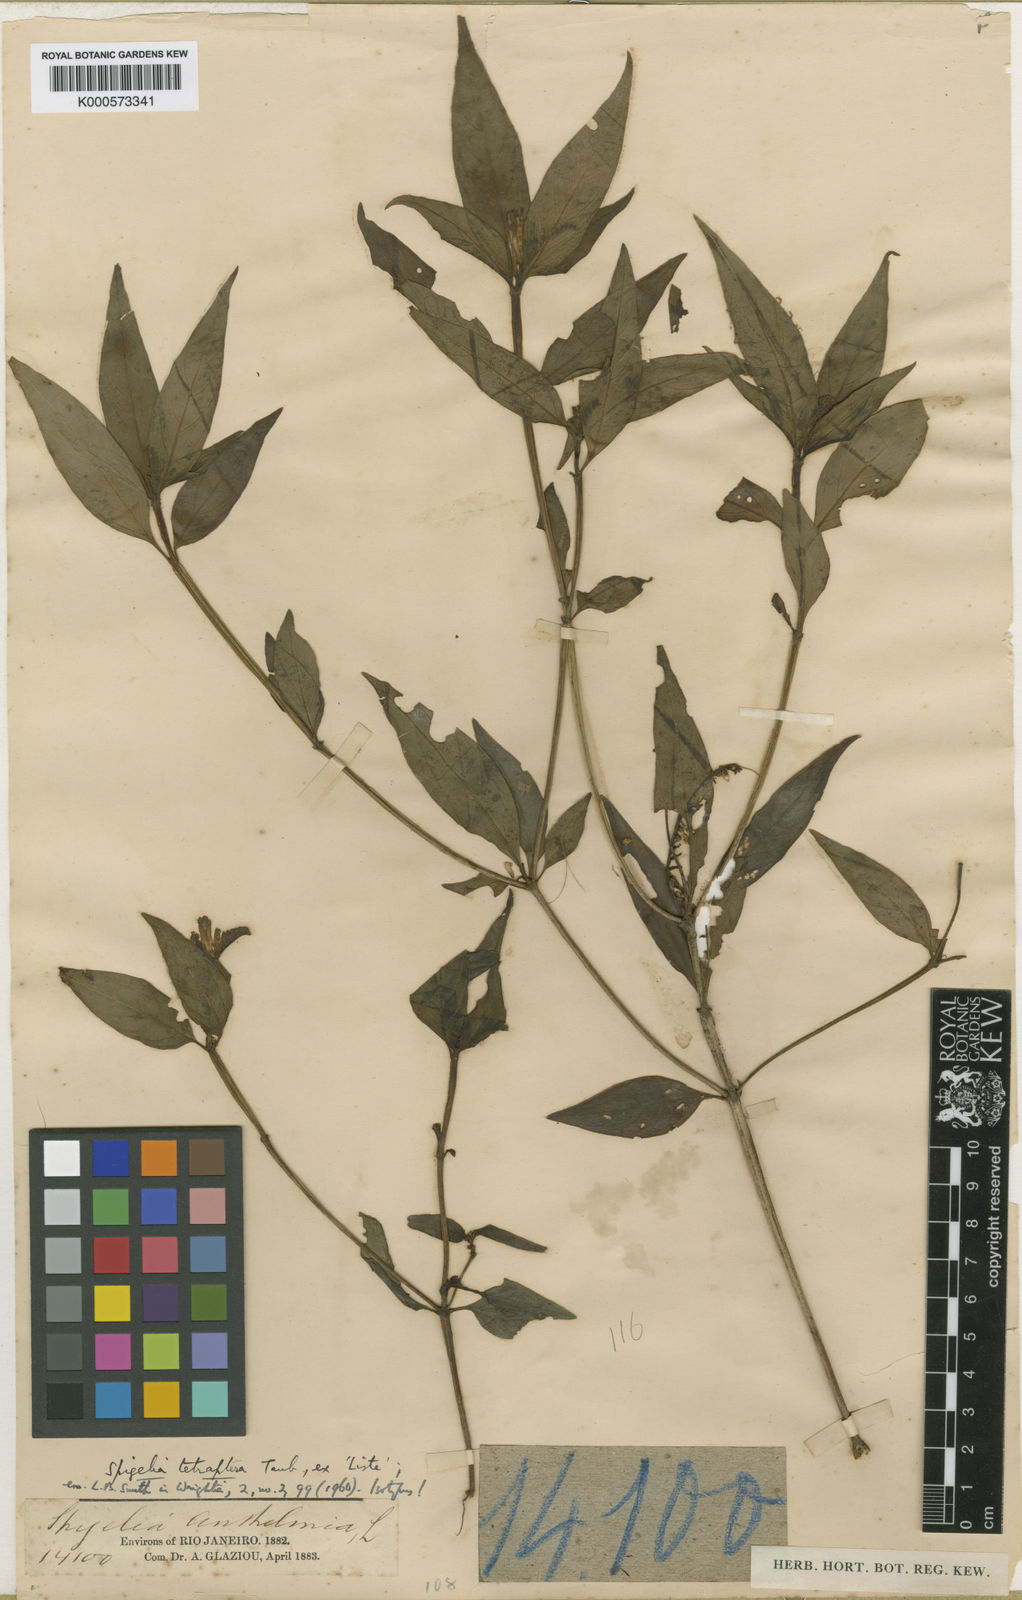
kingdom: Plantae
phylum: Tracheophyta
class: Magnoliopsida
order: Gentianales
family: Loganiaceae
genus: Spigelia
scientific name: Spigelia
